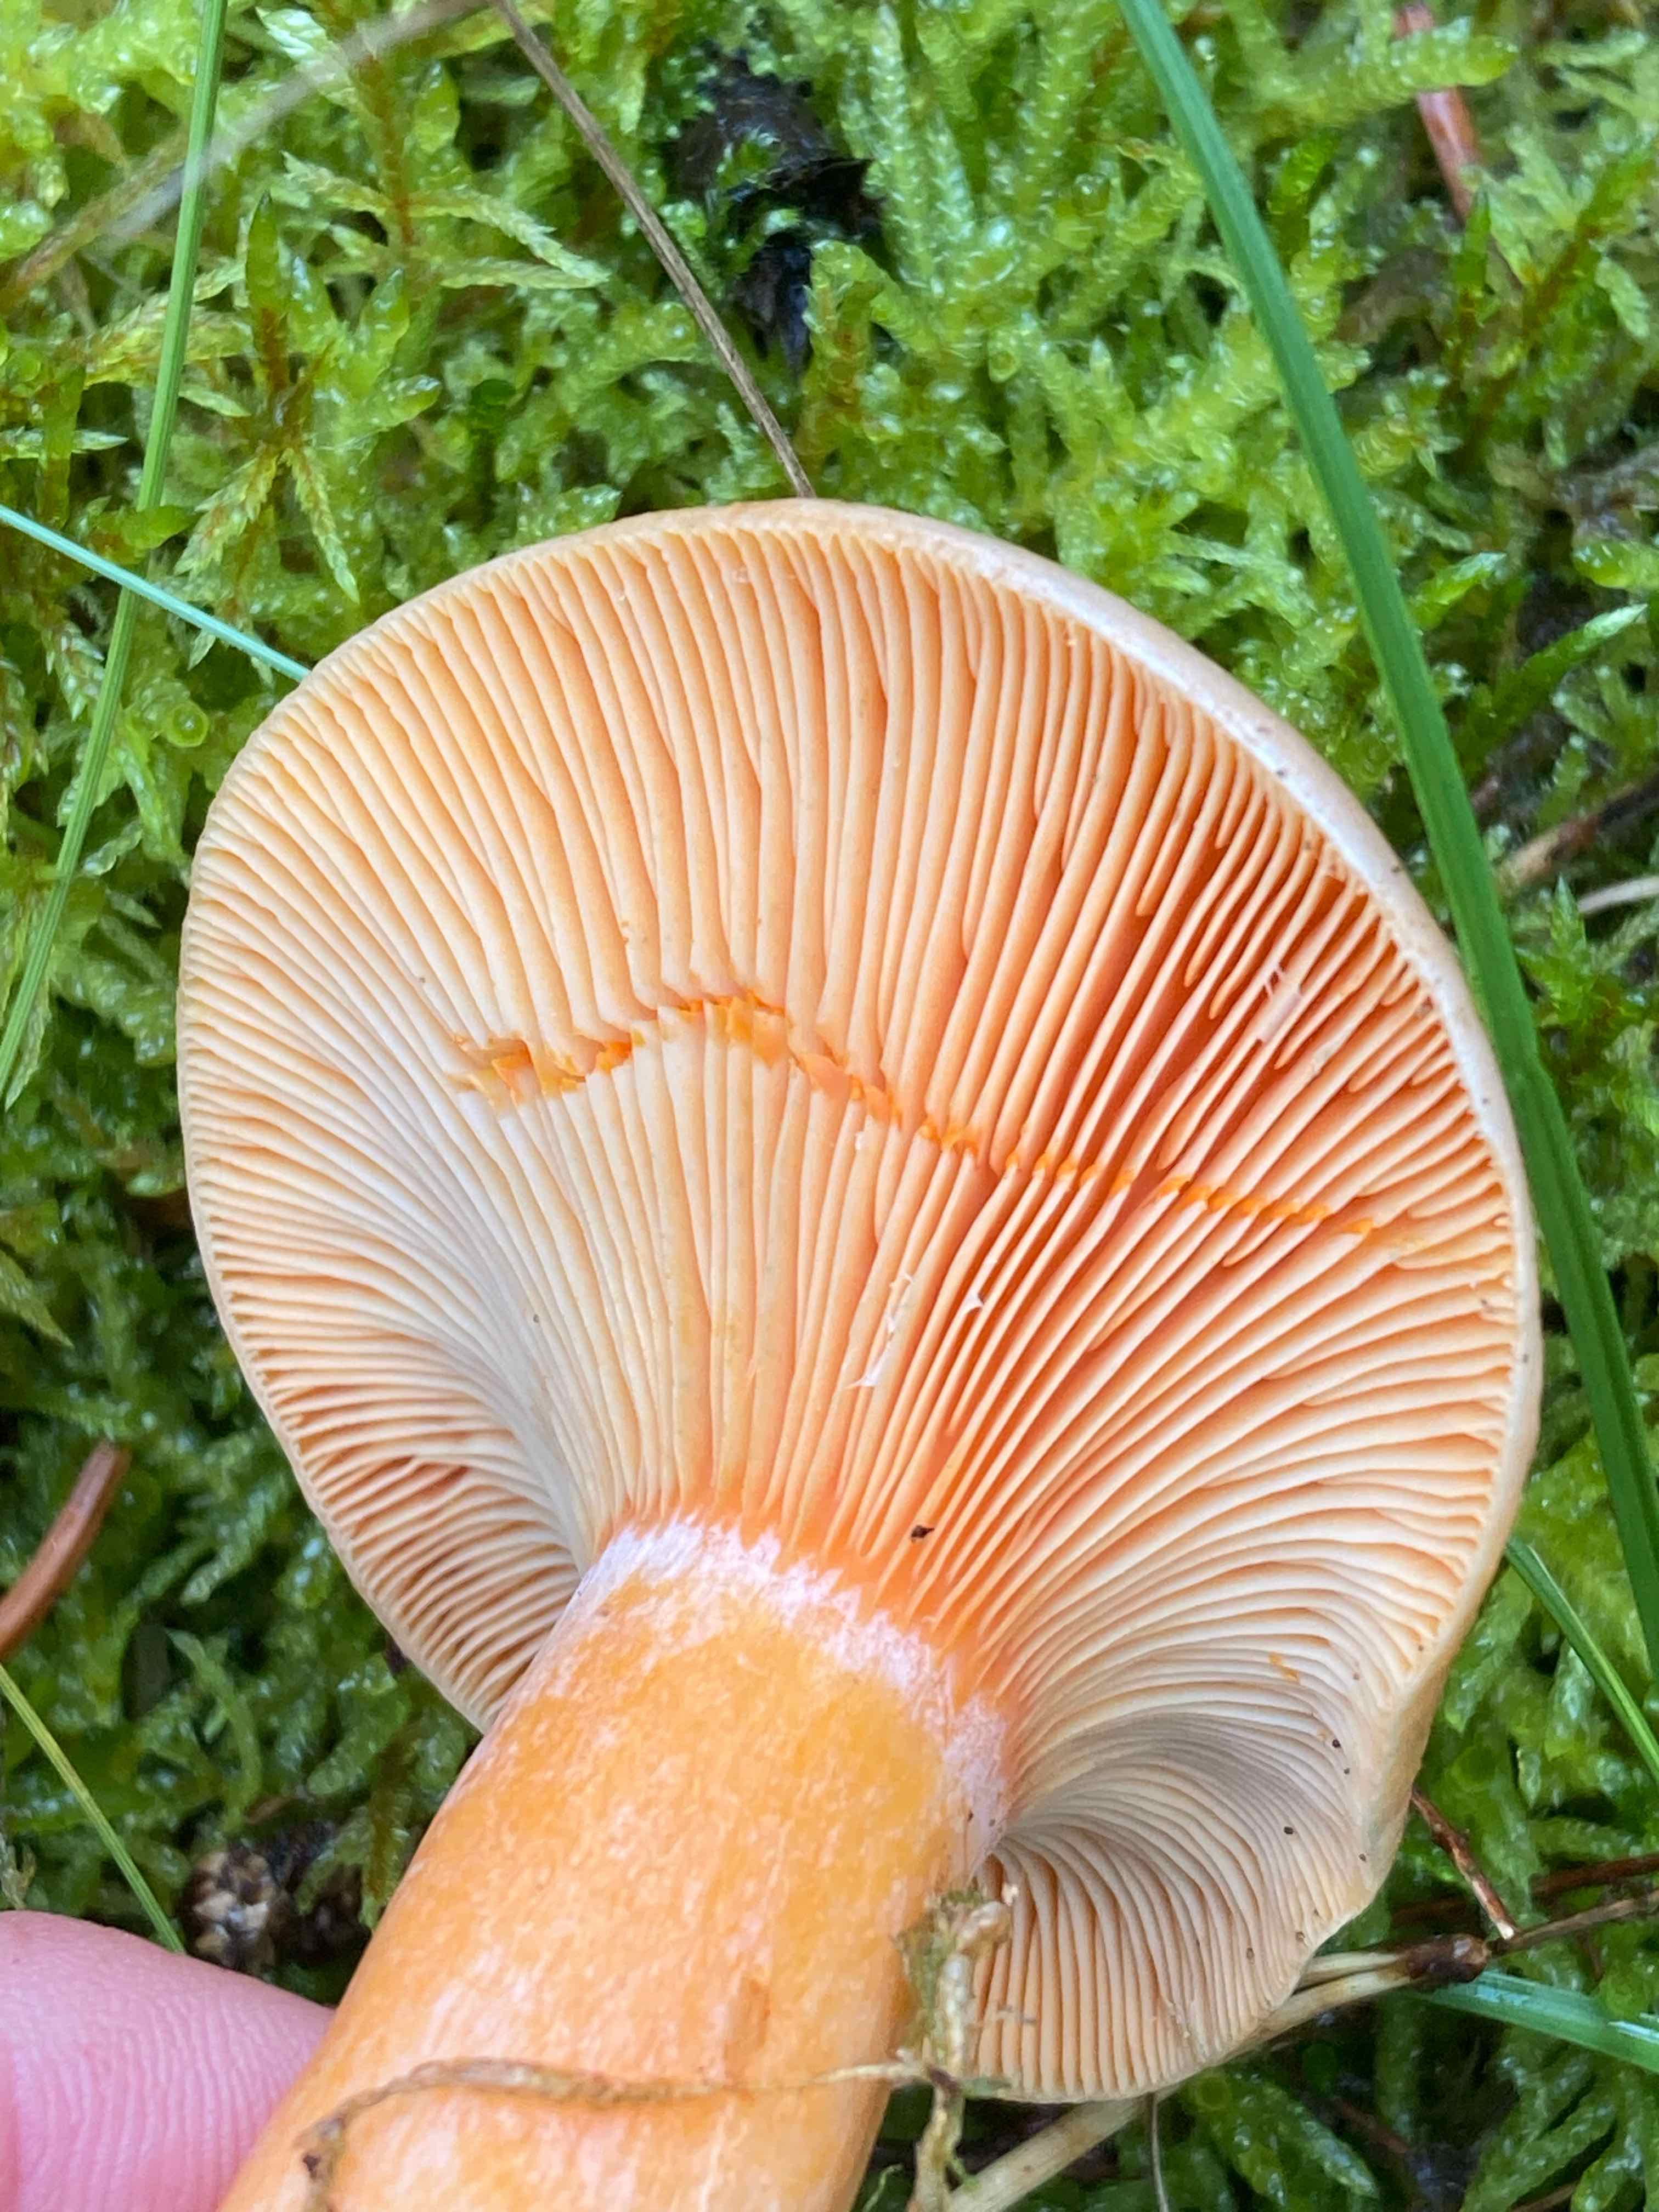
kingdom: Fungi
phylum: Basidiomycota
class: Agaricomycetes
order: Russulales
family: Russulaceae
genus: Lactarius
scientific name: Lactarius deterrimus
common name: gran-mælkehat
